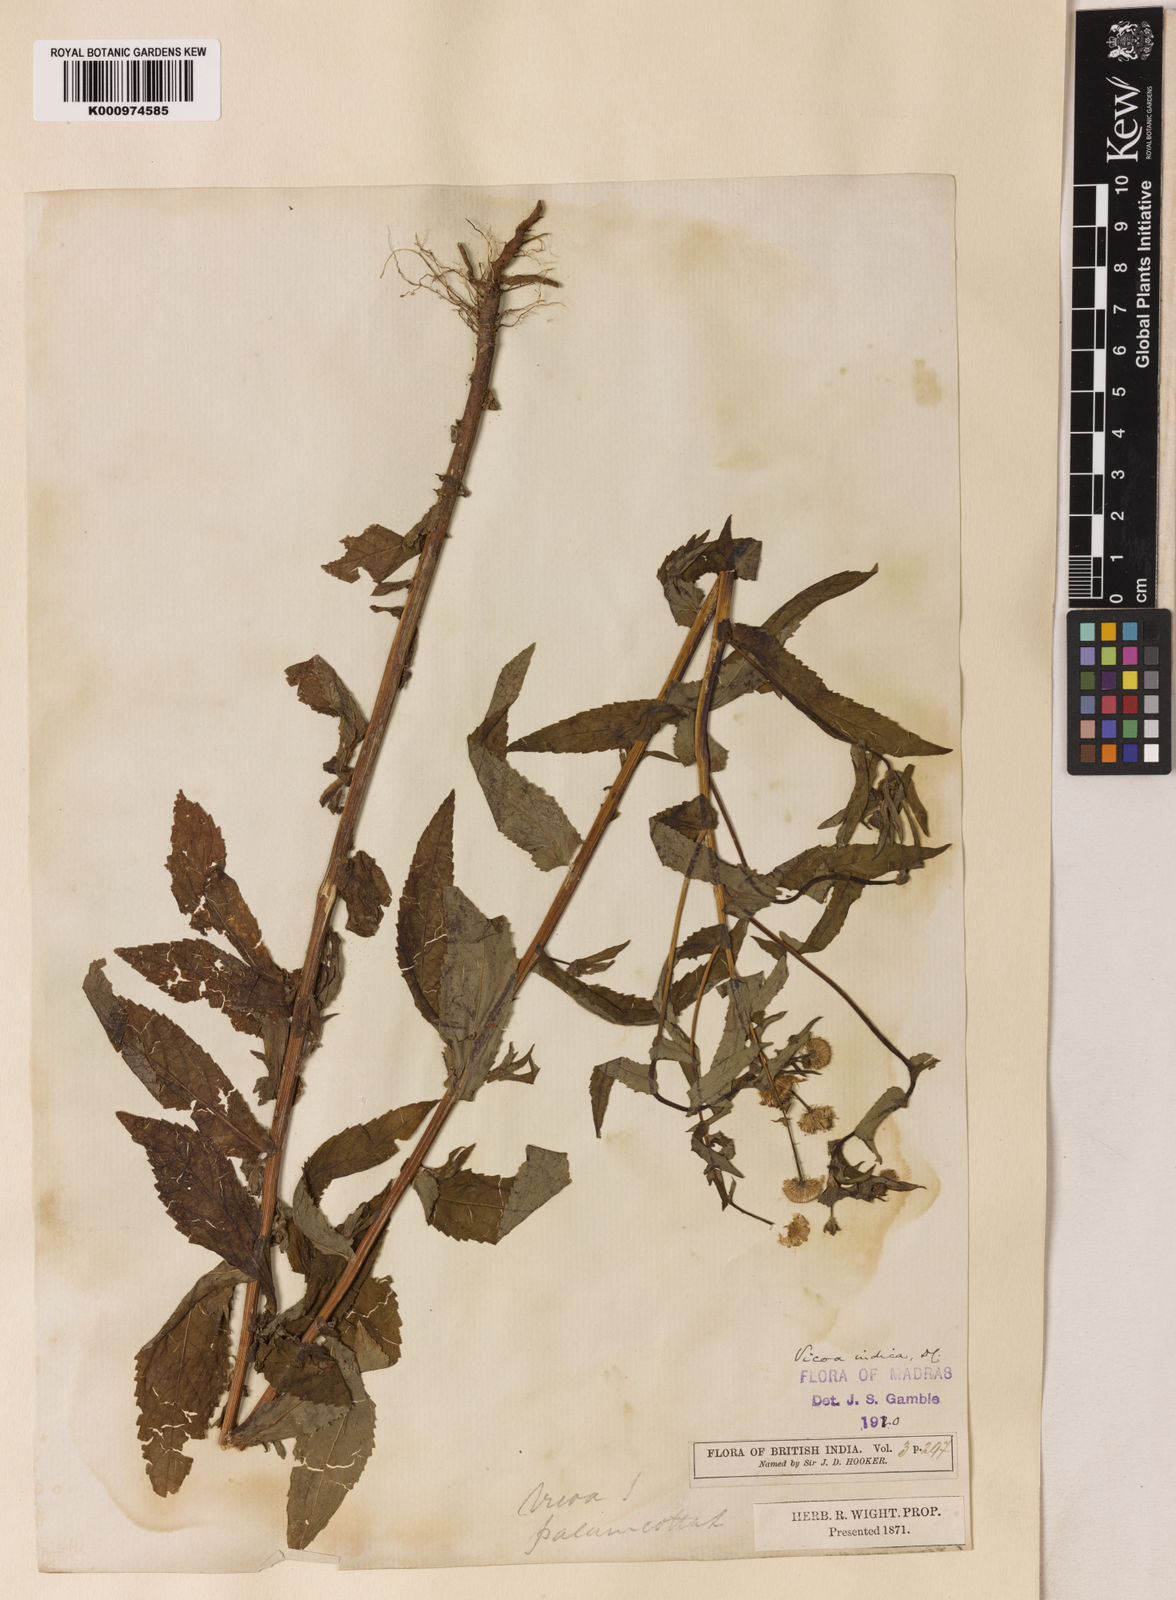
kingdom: Plantae
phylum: Tracheophyta
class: Magnoliopsida
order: Asterales
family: Asteraceae
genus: Vicoa
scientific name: Vicoa indica
